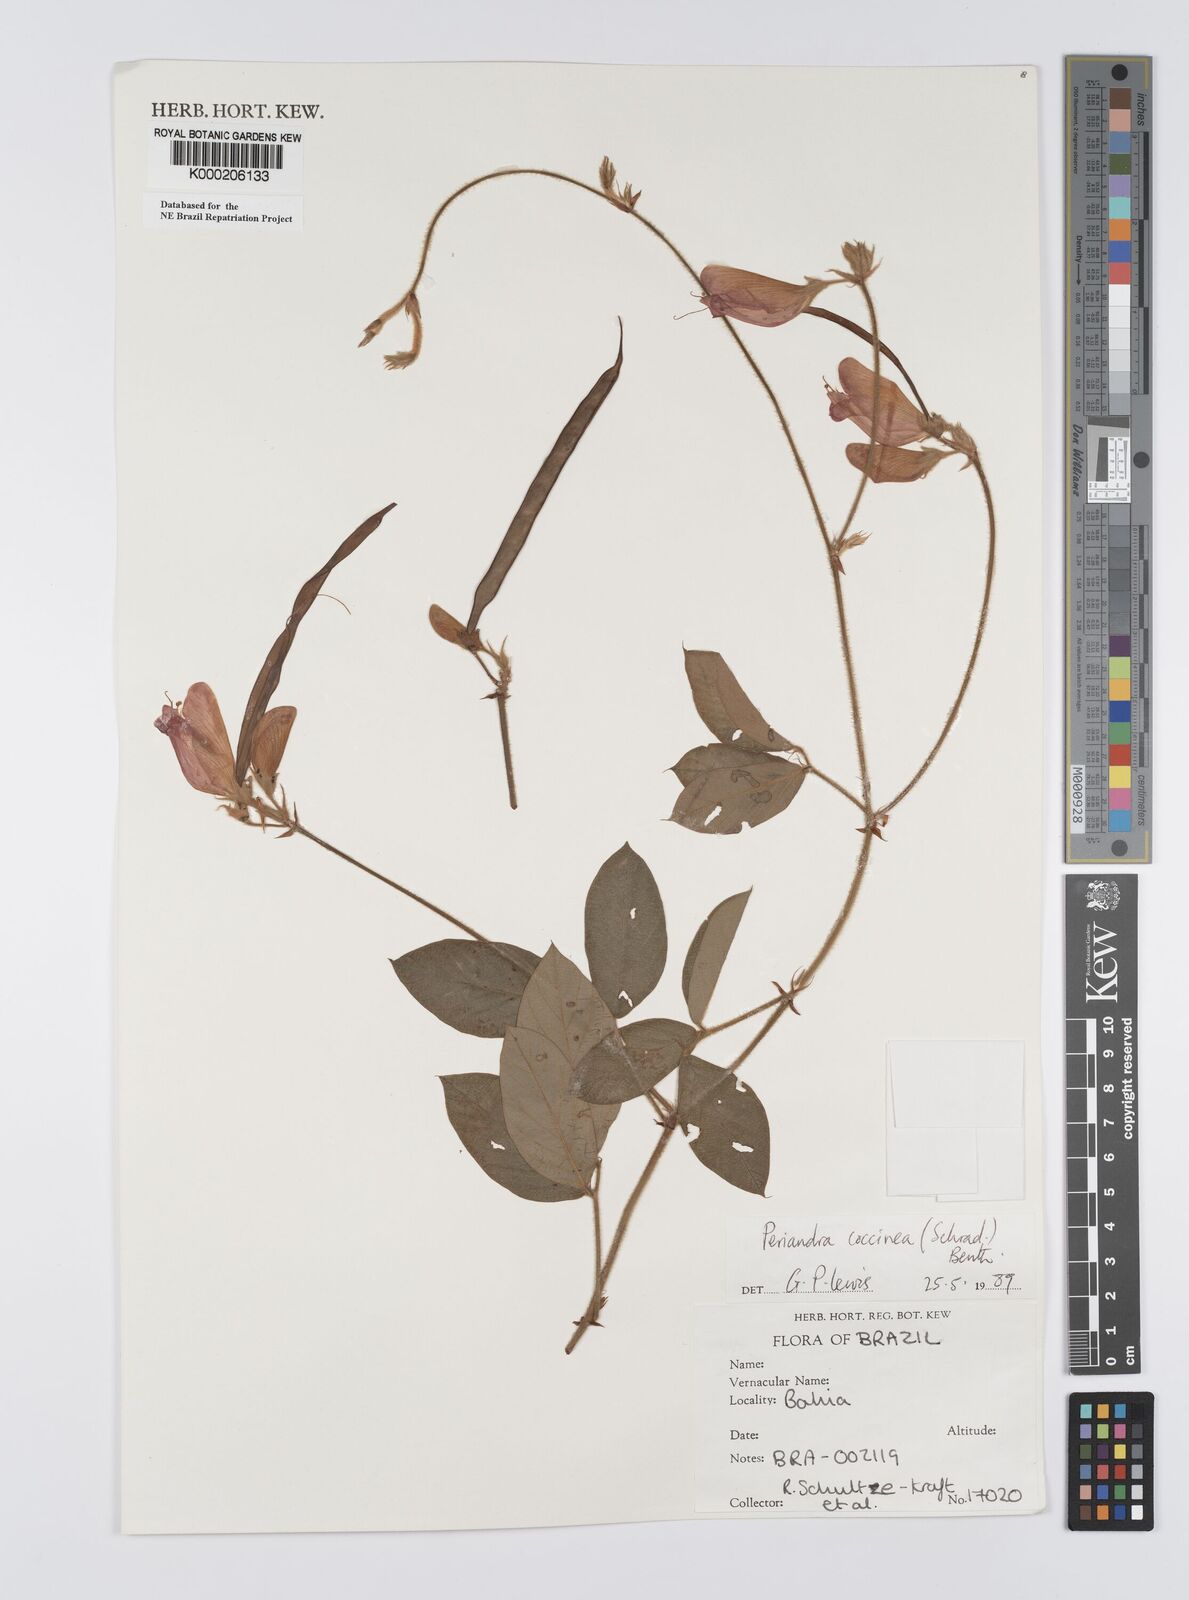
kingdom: Plantae
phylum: Tracheophyta
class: Magnoliopsida
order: Fabales
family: Fabaceae
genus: Periandra
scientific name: Periandra coccinea
